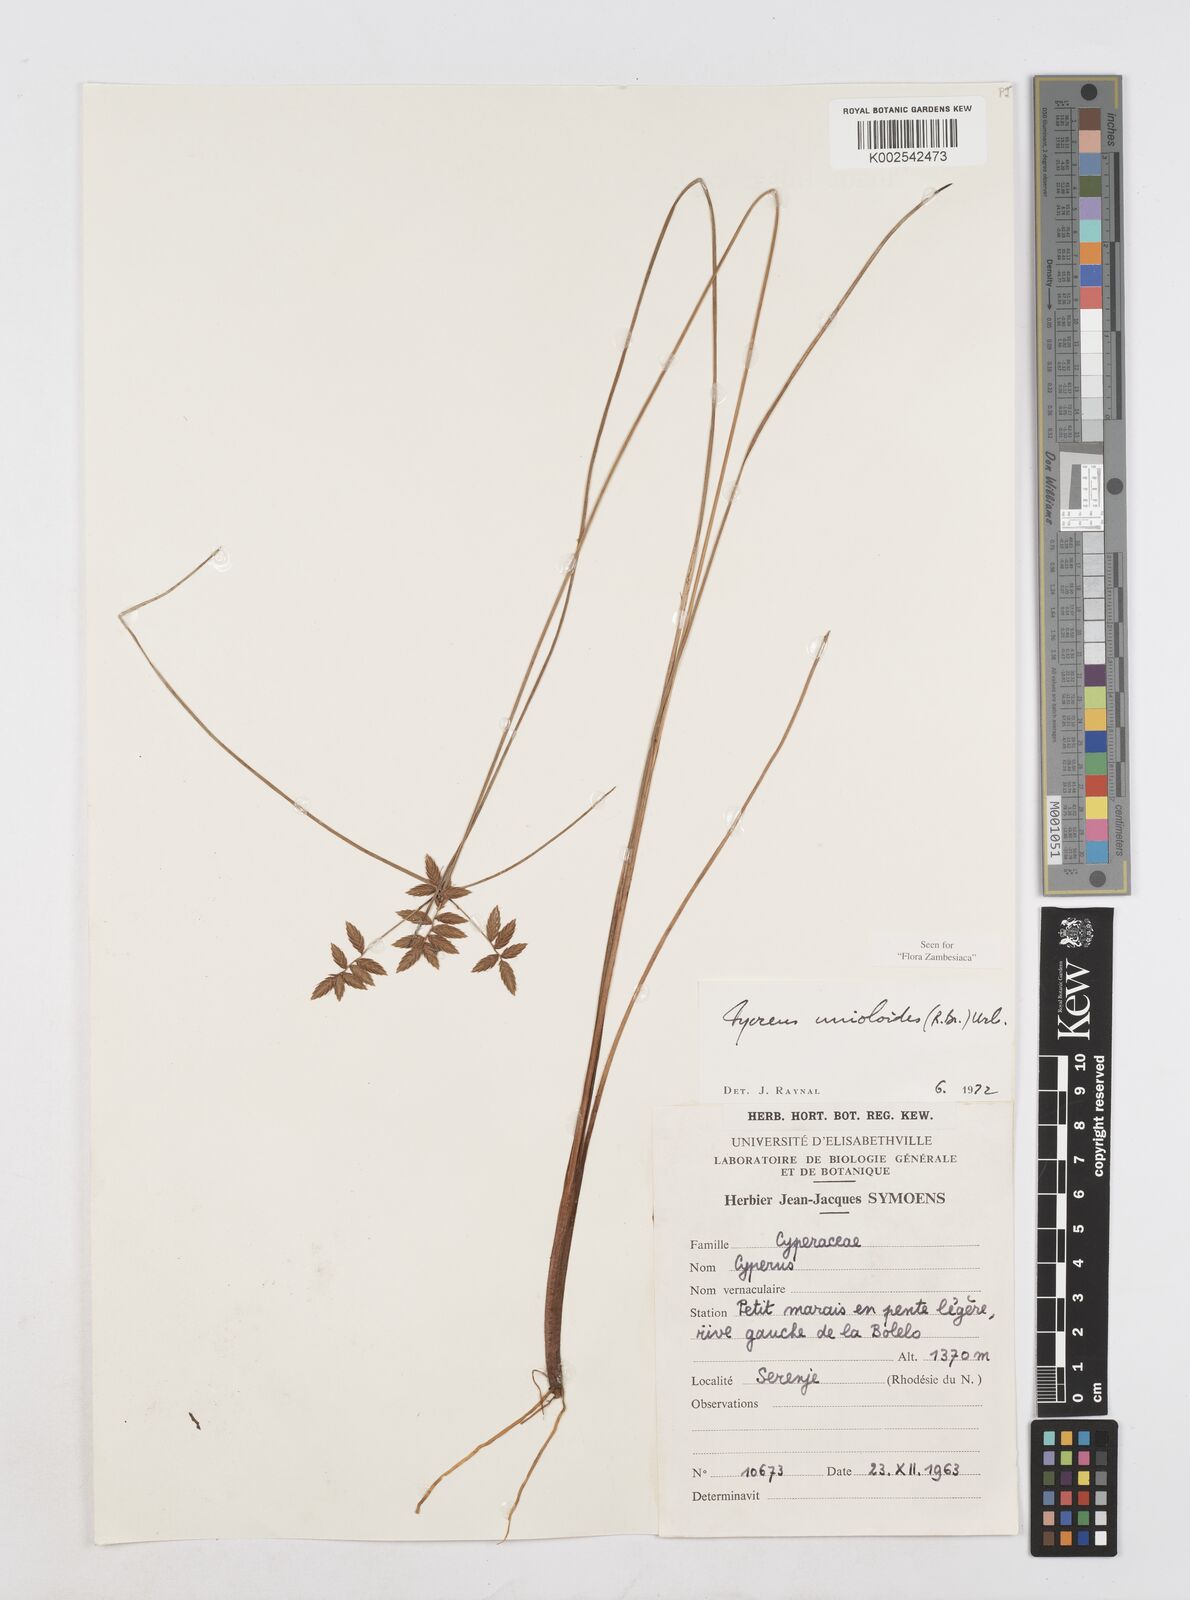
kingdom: Plantae
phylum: Tracheophyta
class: Liliopsida
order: Poales
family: Cyperaceae
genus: Cyperus
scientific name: Cyperus unioloides
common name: Uniola flatsedge
